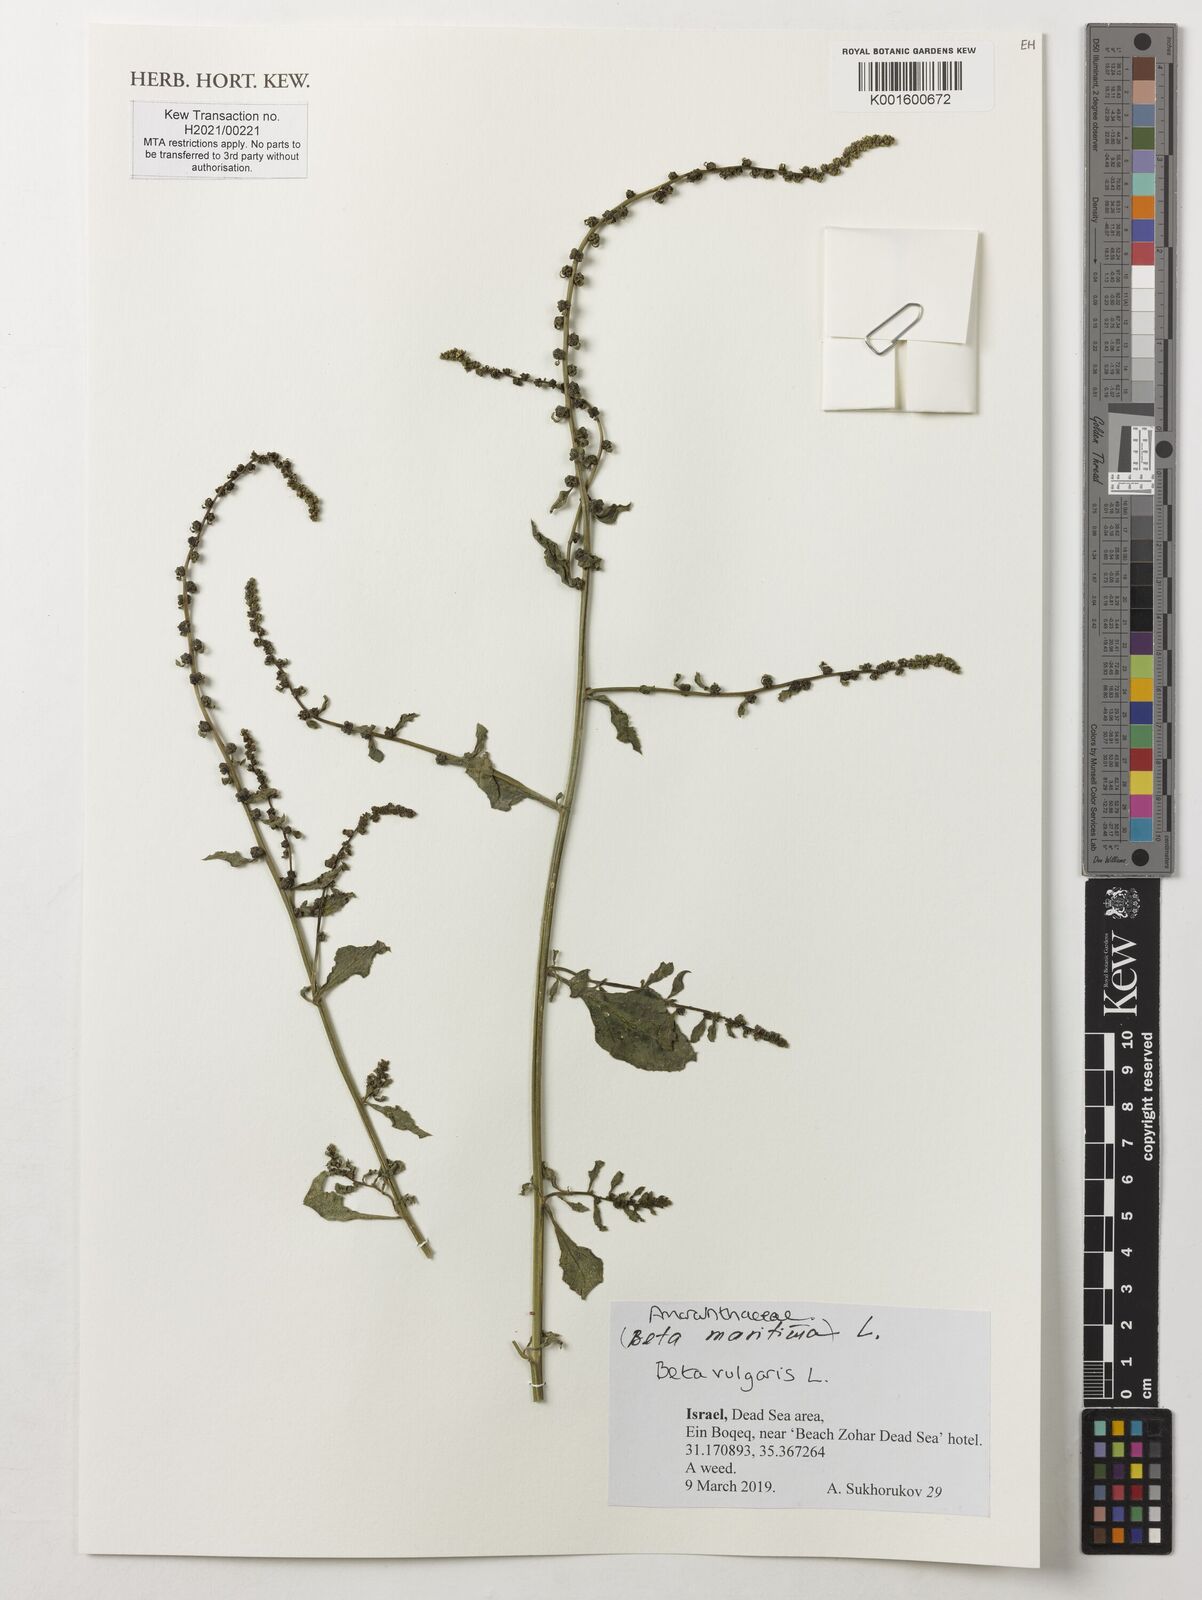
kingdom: Plantae
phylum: Tracheophyta
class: Magnoliopsida
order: Caryophyllales
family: Amaranthaceae
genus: Beta
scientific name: Beta vulgaris
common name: Beet
